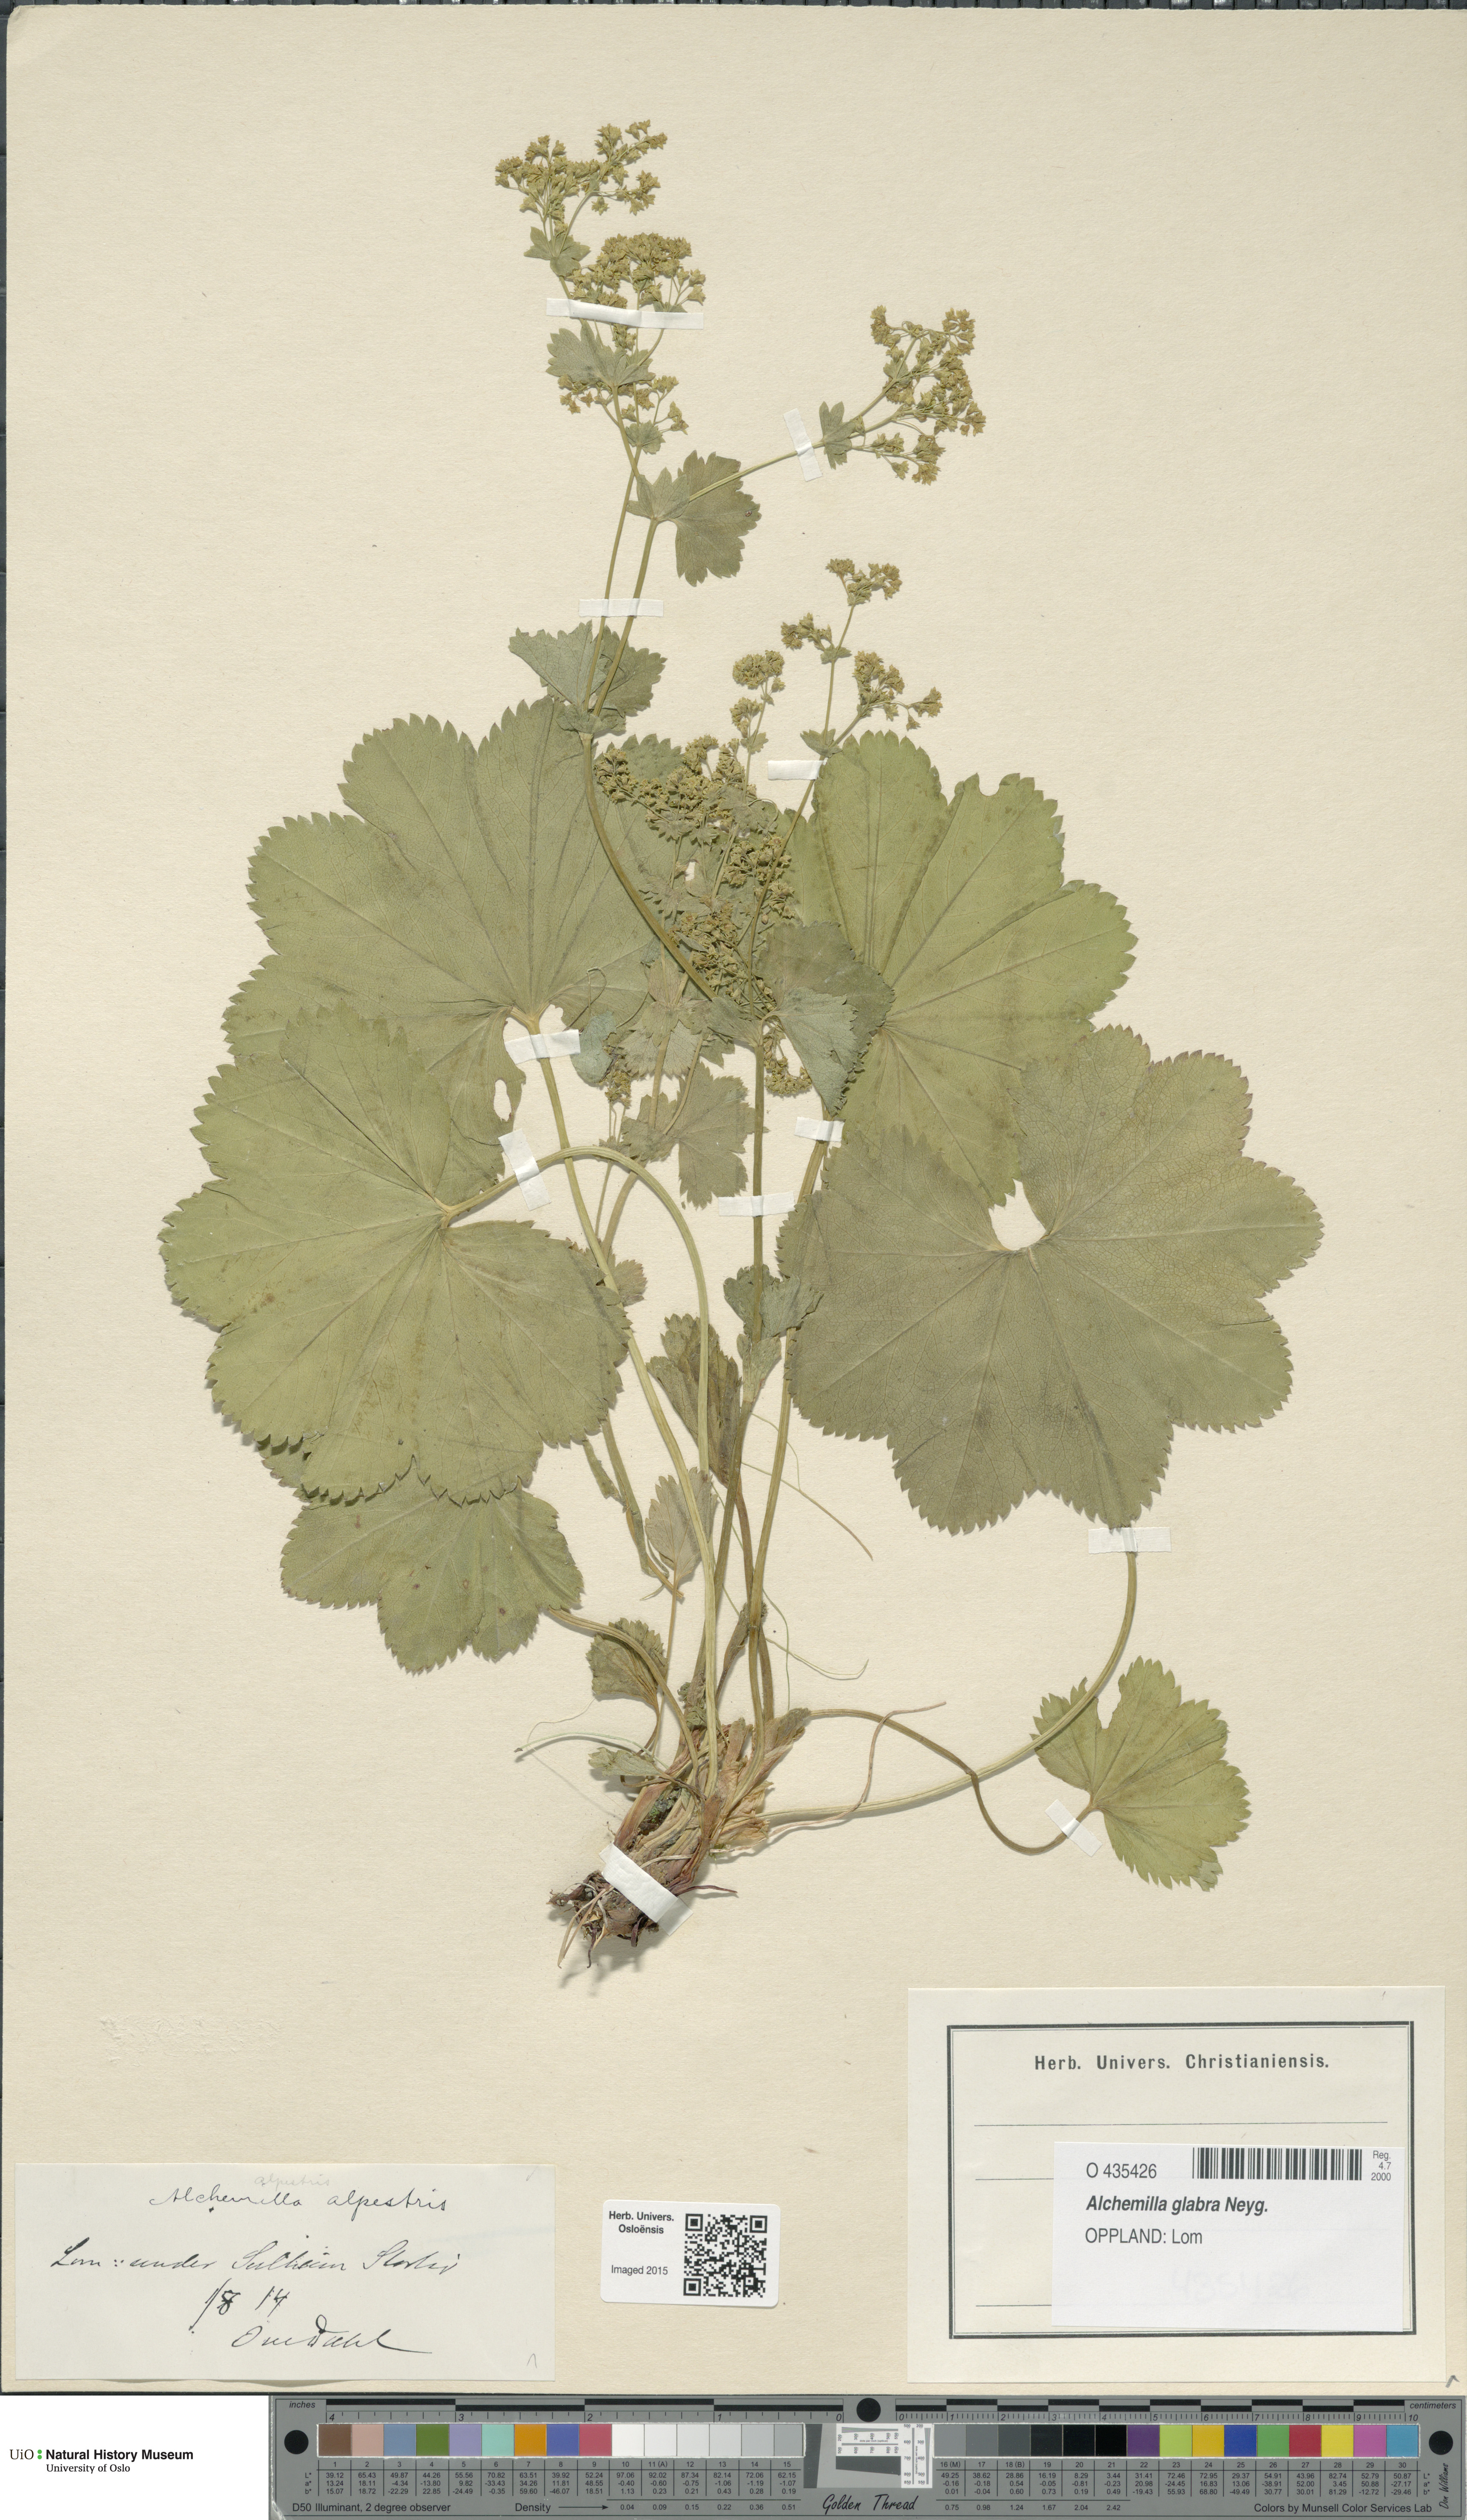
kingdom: Plantae
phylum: Tracheophyta
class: Magnoliopsida
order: Rosales
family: Rosaceae
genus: Alchemilla
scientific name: Alchemilla glabra
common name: Smooth lady's-mantle
